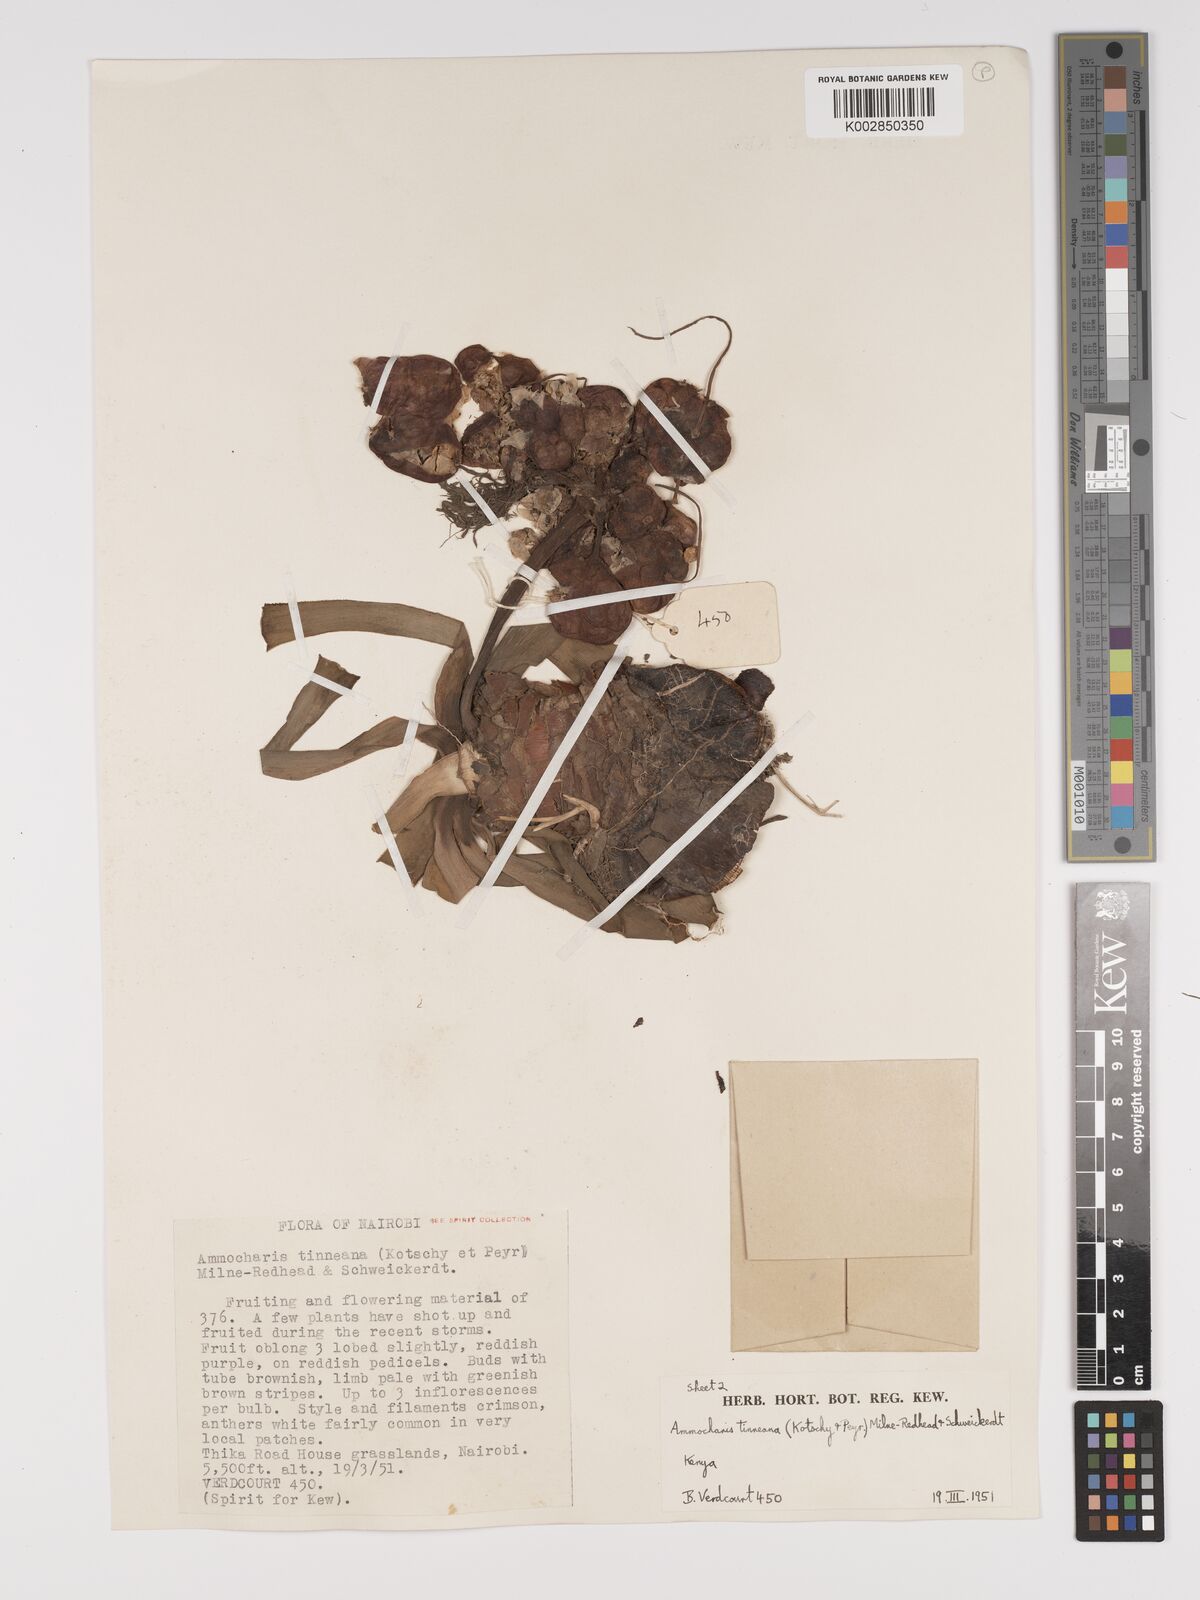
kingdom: Plantae
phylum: Tracheophyta
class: Liliopsida
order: Asparagales
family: Amaryllidaceae
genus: Ammocharis
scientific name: Ammocharis tinneana
